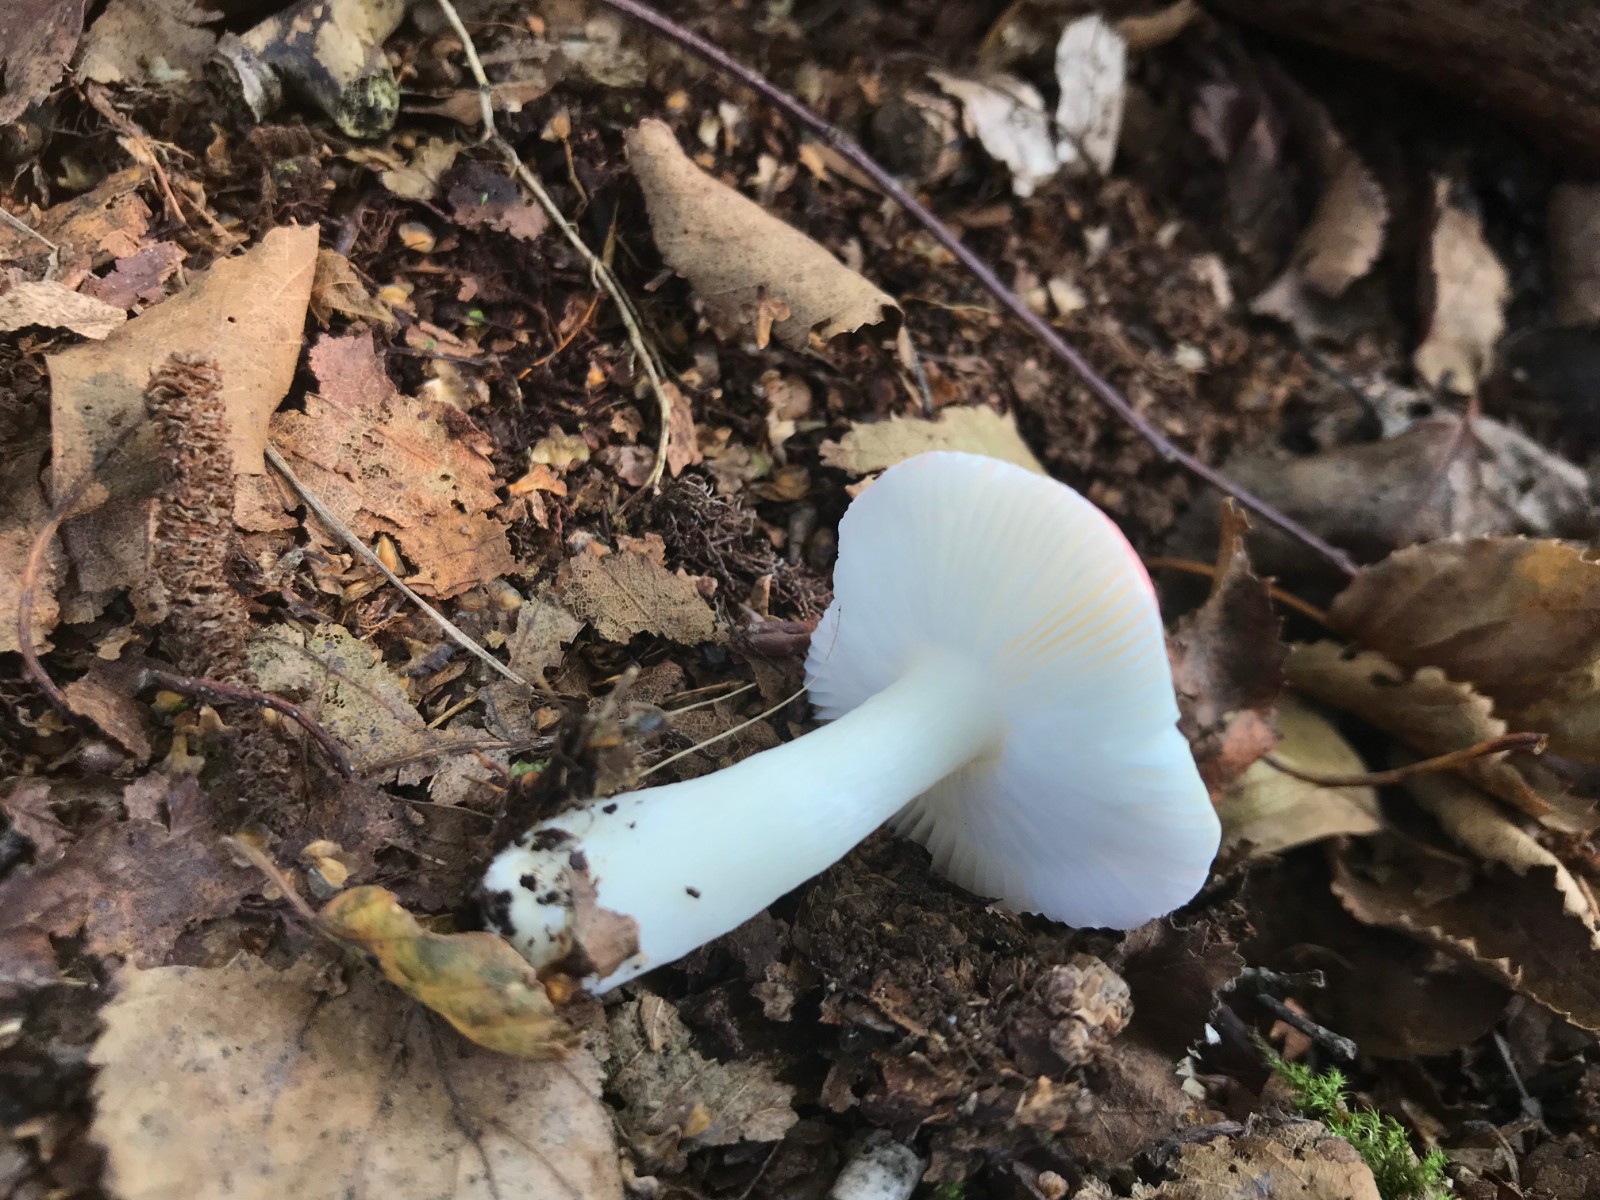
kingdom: Fungi
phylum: Basidiomycota
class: Agaricomycetes
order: Russulales
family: Russulaceae
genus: Russula
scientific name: Russula betularum
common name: bleg gift-skørhat
